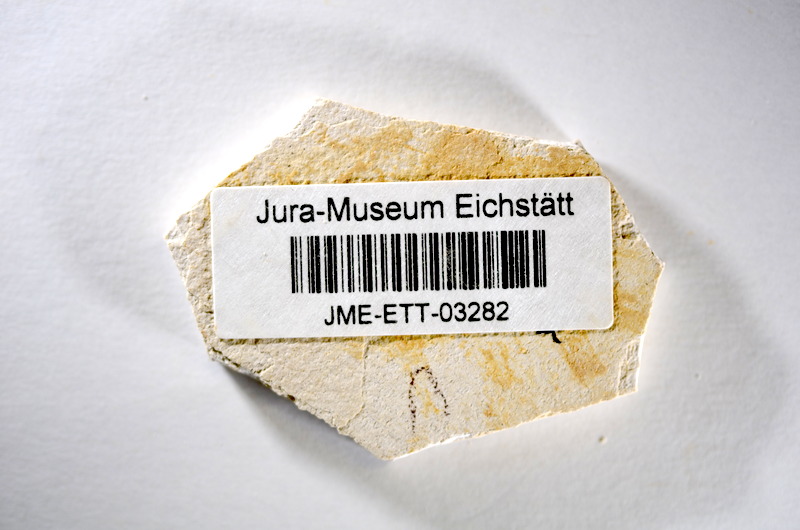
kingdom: Animalia
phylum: Chordata
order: Salmoniformes
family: Orthogonikleithridae
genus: Orthogonikleithrus
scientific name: Orthogonikleithrus hoelli
